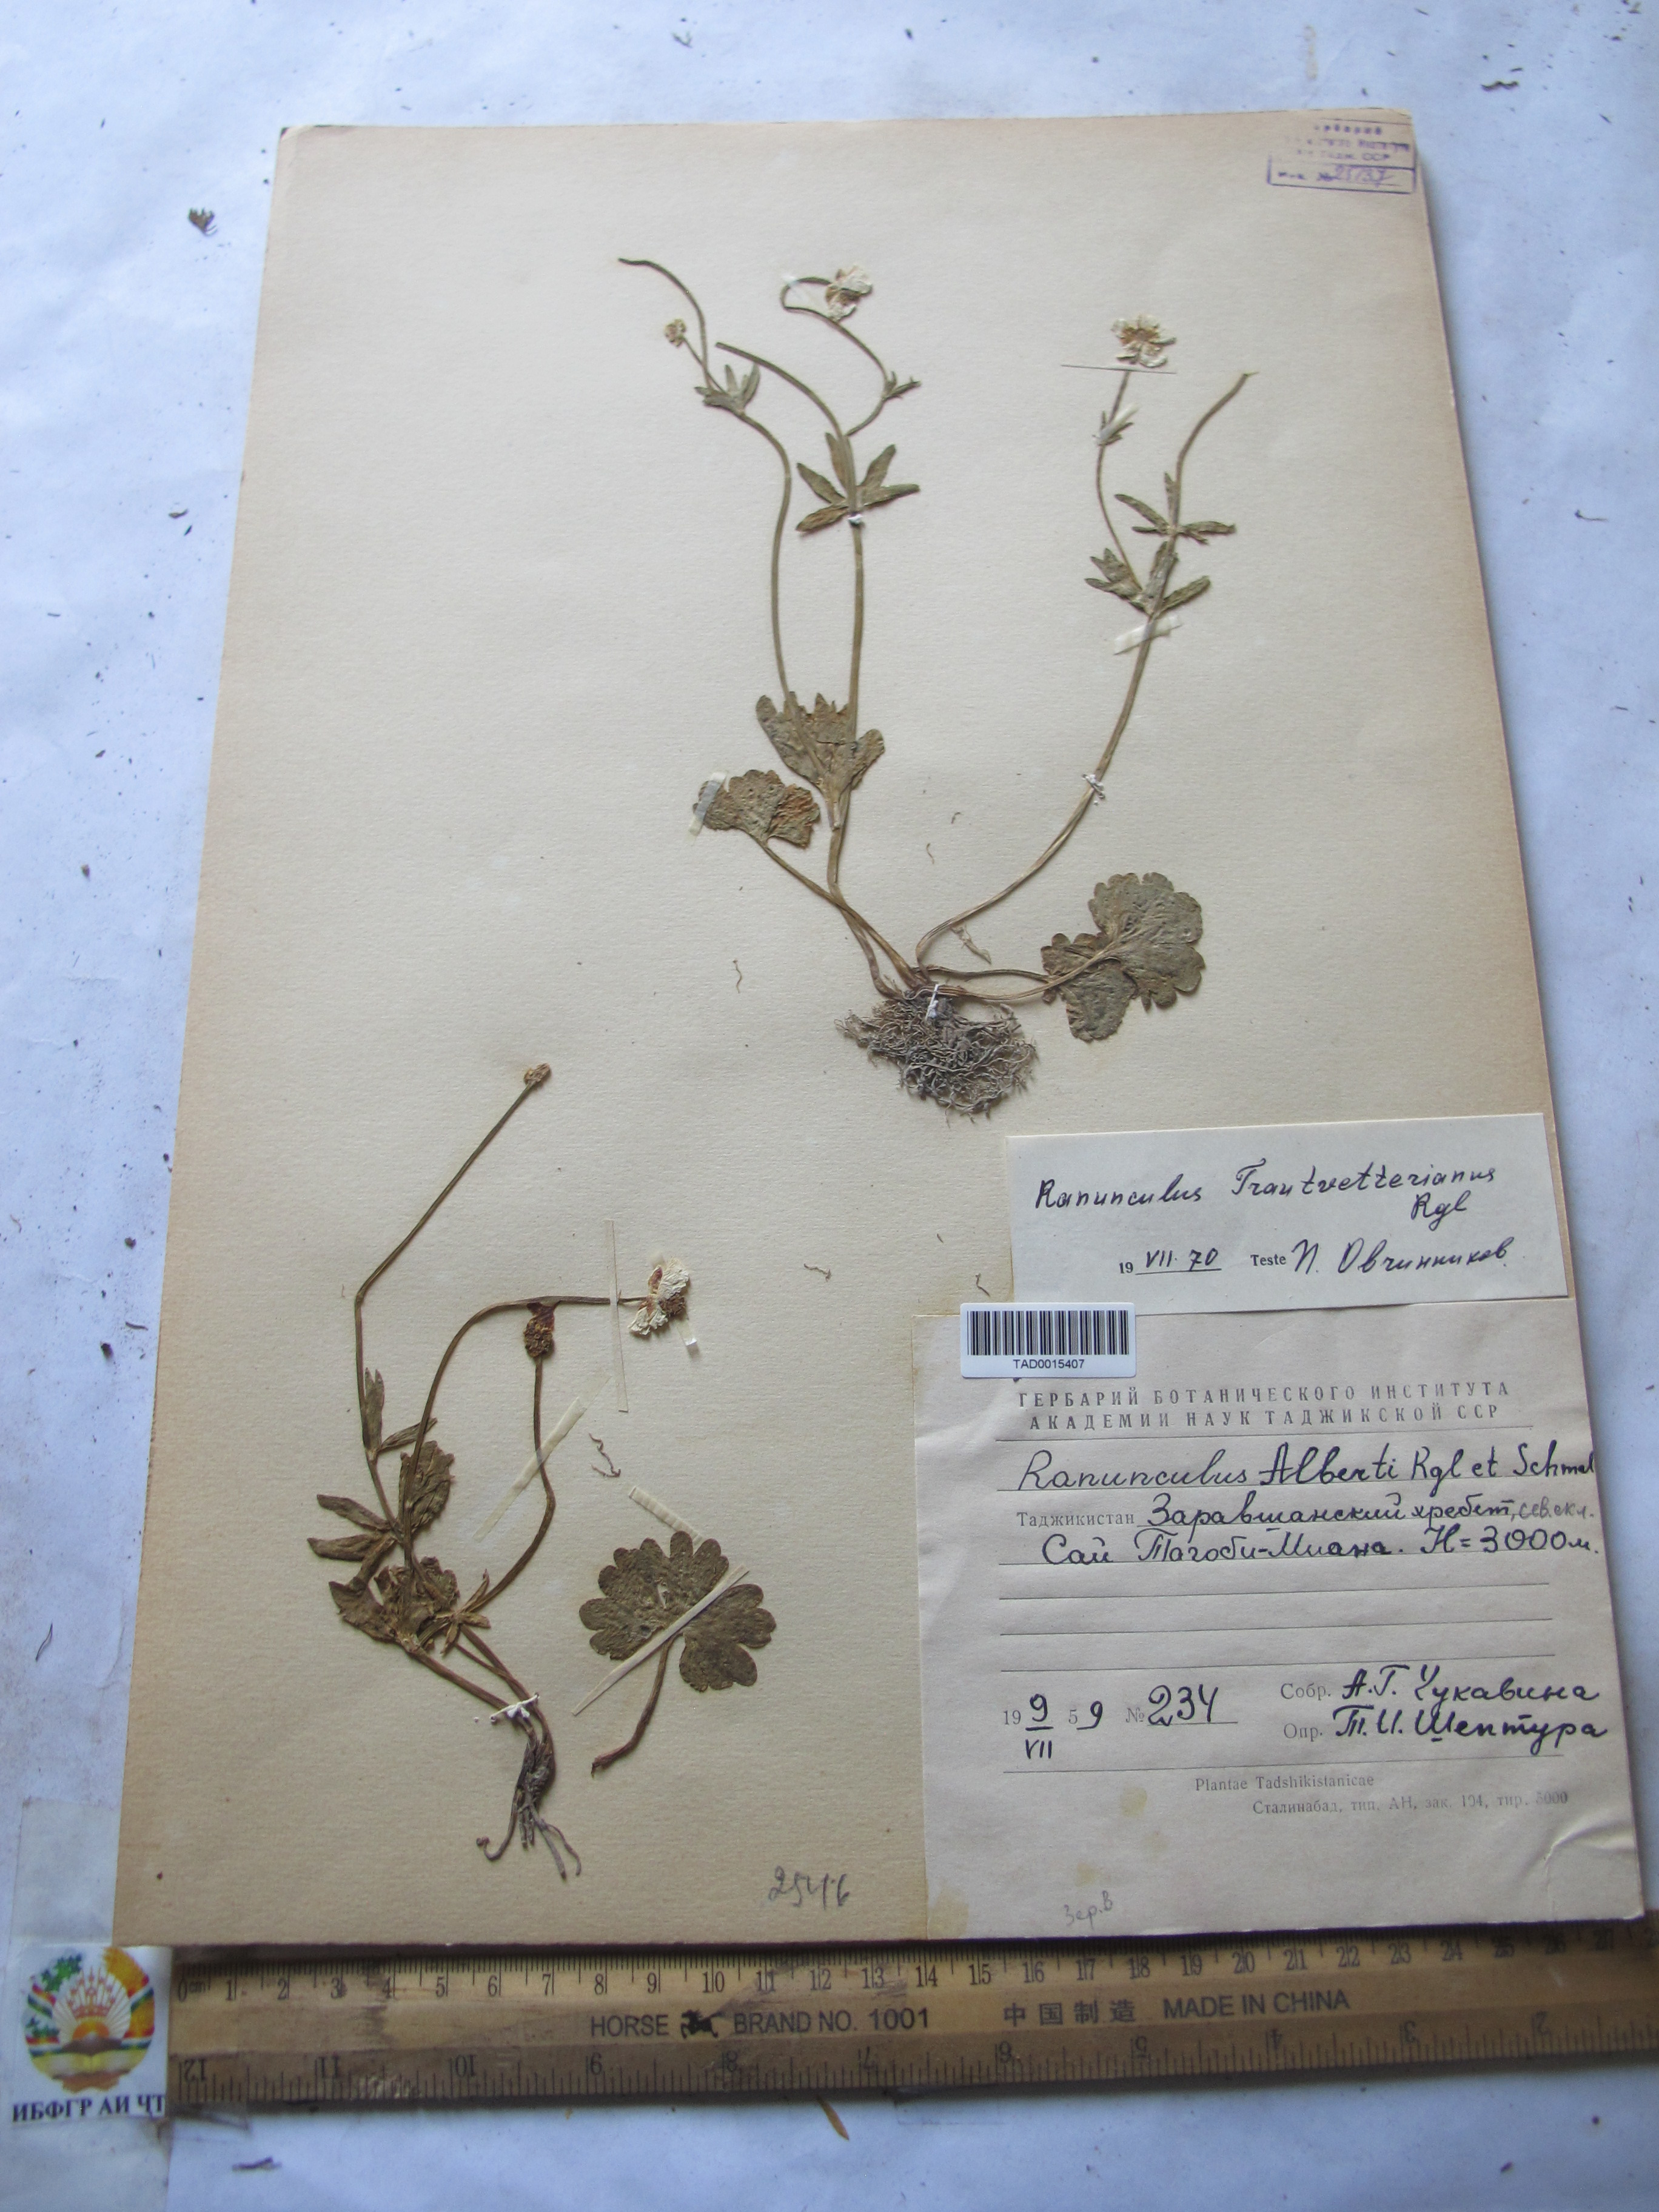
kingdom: Plantae
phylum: Tracheophyta
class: Magnoliopsida
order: Ranunculales
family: Ranunculaceae
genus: Ranunculus
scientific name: Ranunculus
